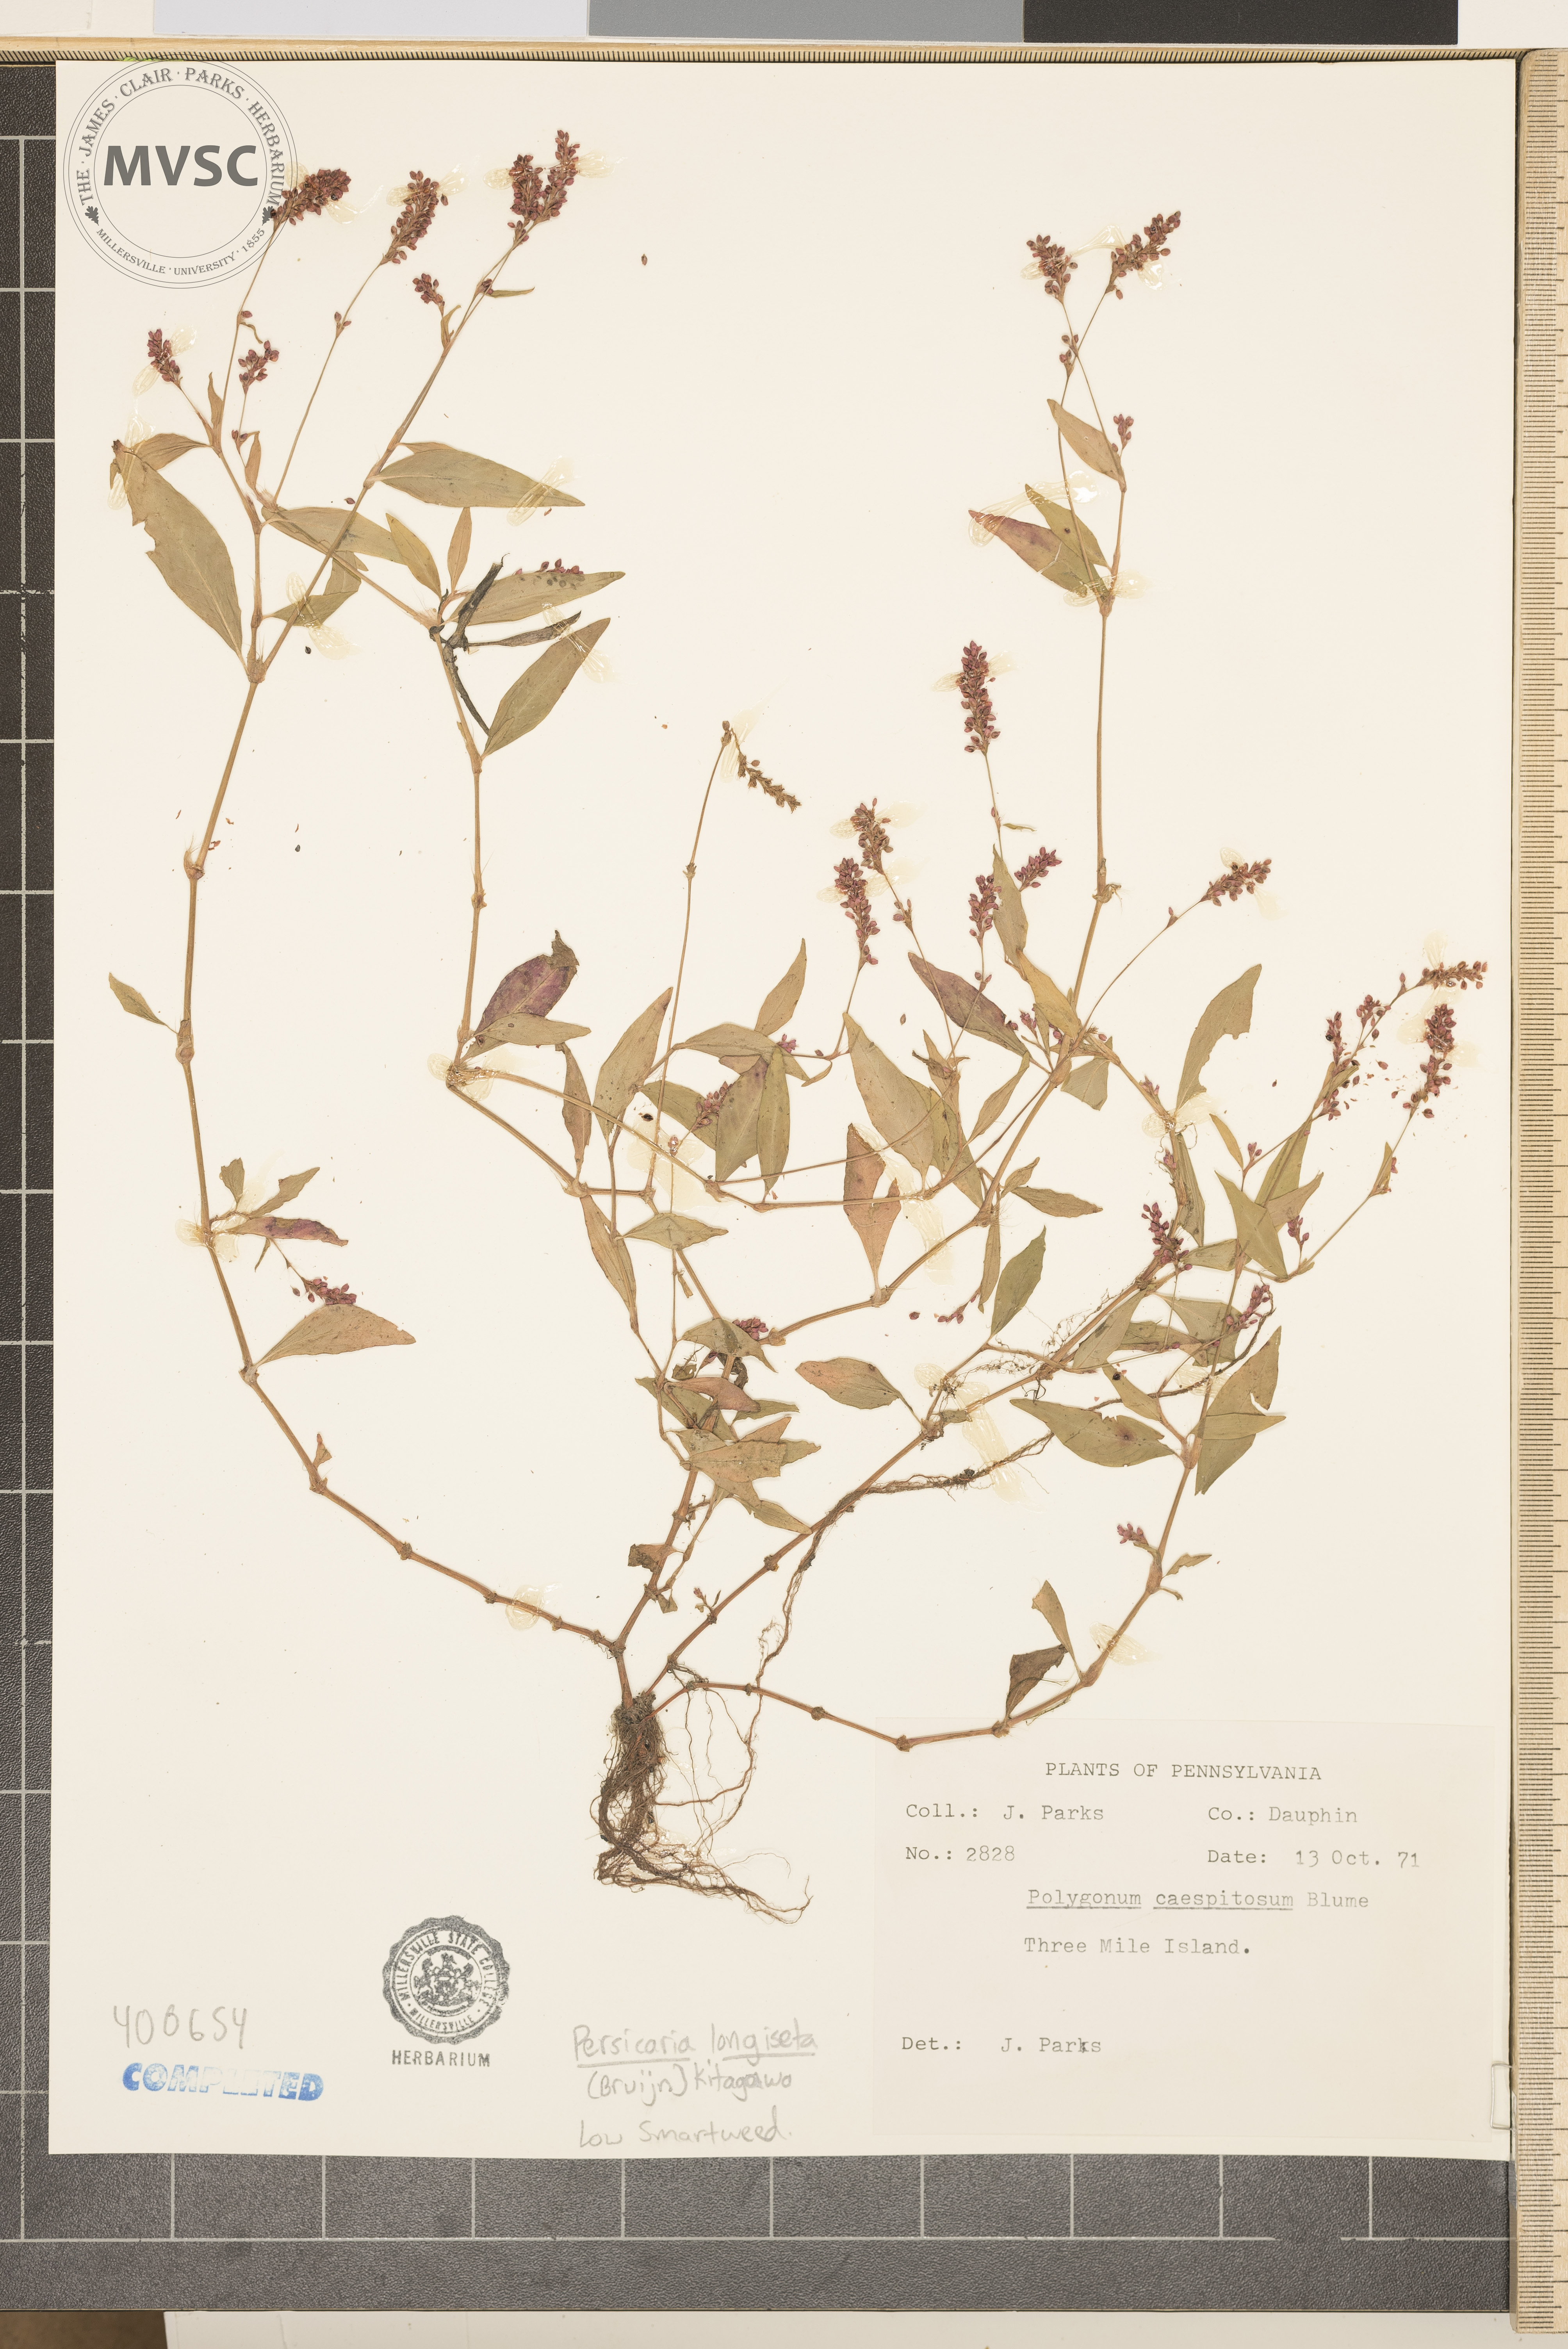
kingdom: Plantae
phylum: Tracheophyta
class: Magnoliopsida
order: Caryophyllales
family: Polygonaceae
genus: Persicaria
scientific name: Persicaria longiseta
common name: Bristly lady's-thumb
